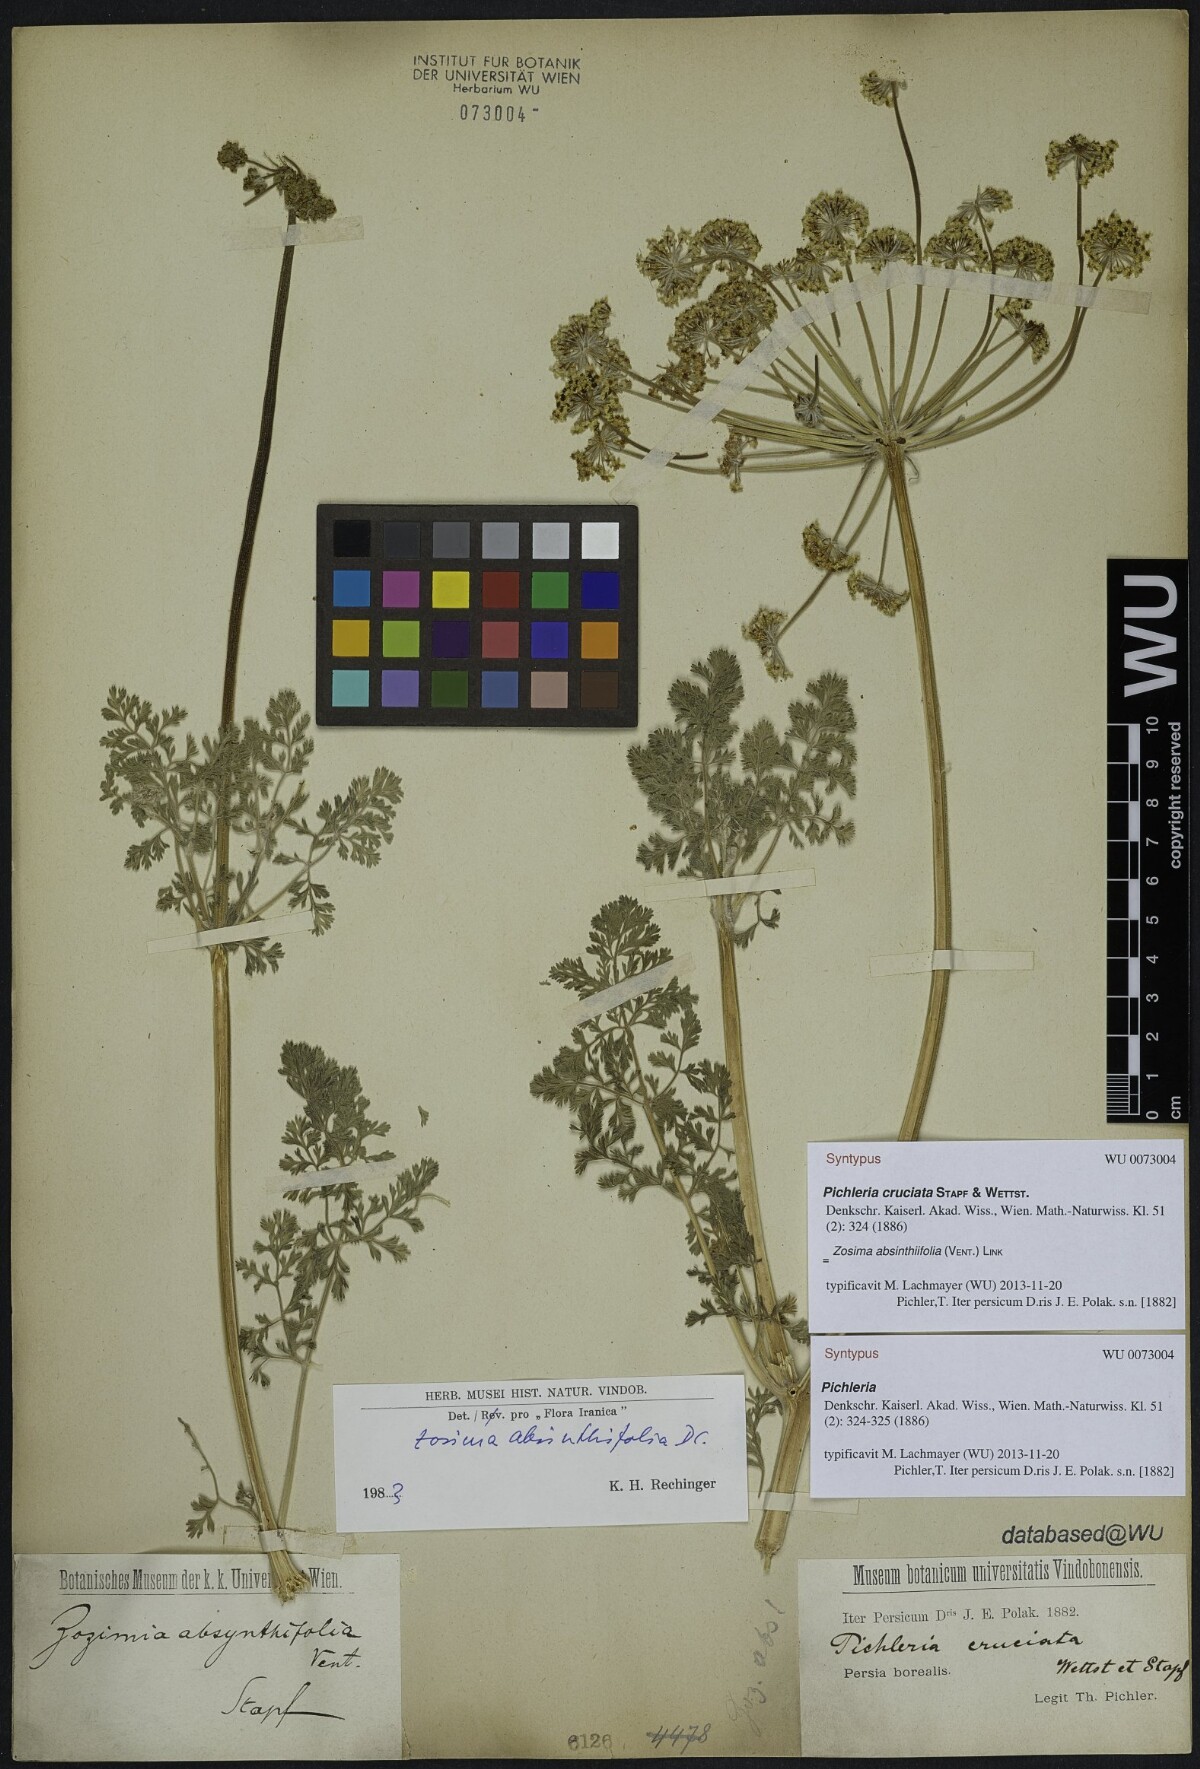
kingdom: Plantae
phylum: Tracheophyta
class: Magnoliopsida
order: Apiales
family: Apiaceae
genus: Zosima
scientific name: Zosima absinthiifolia
